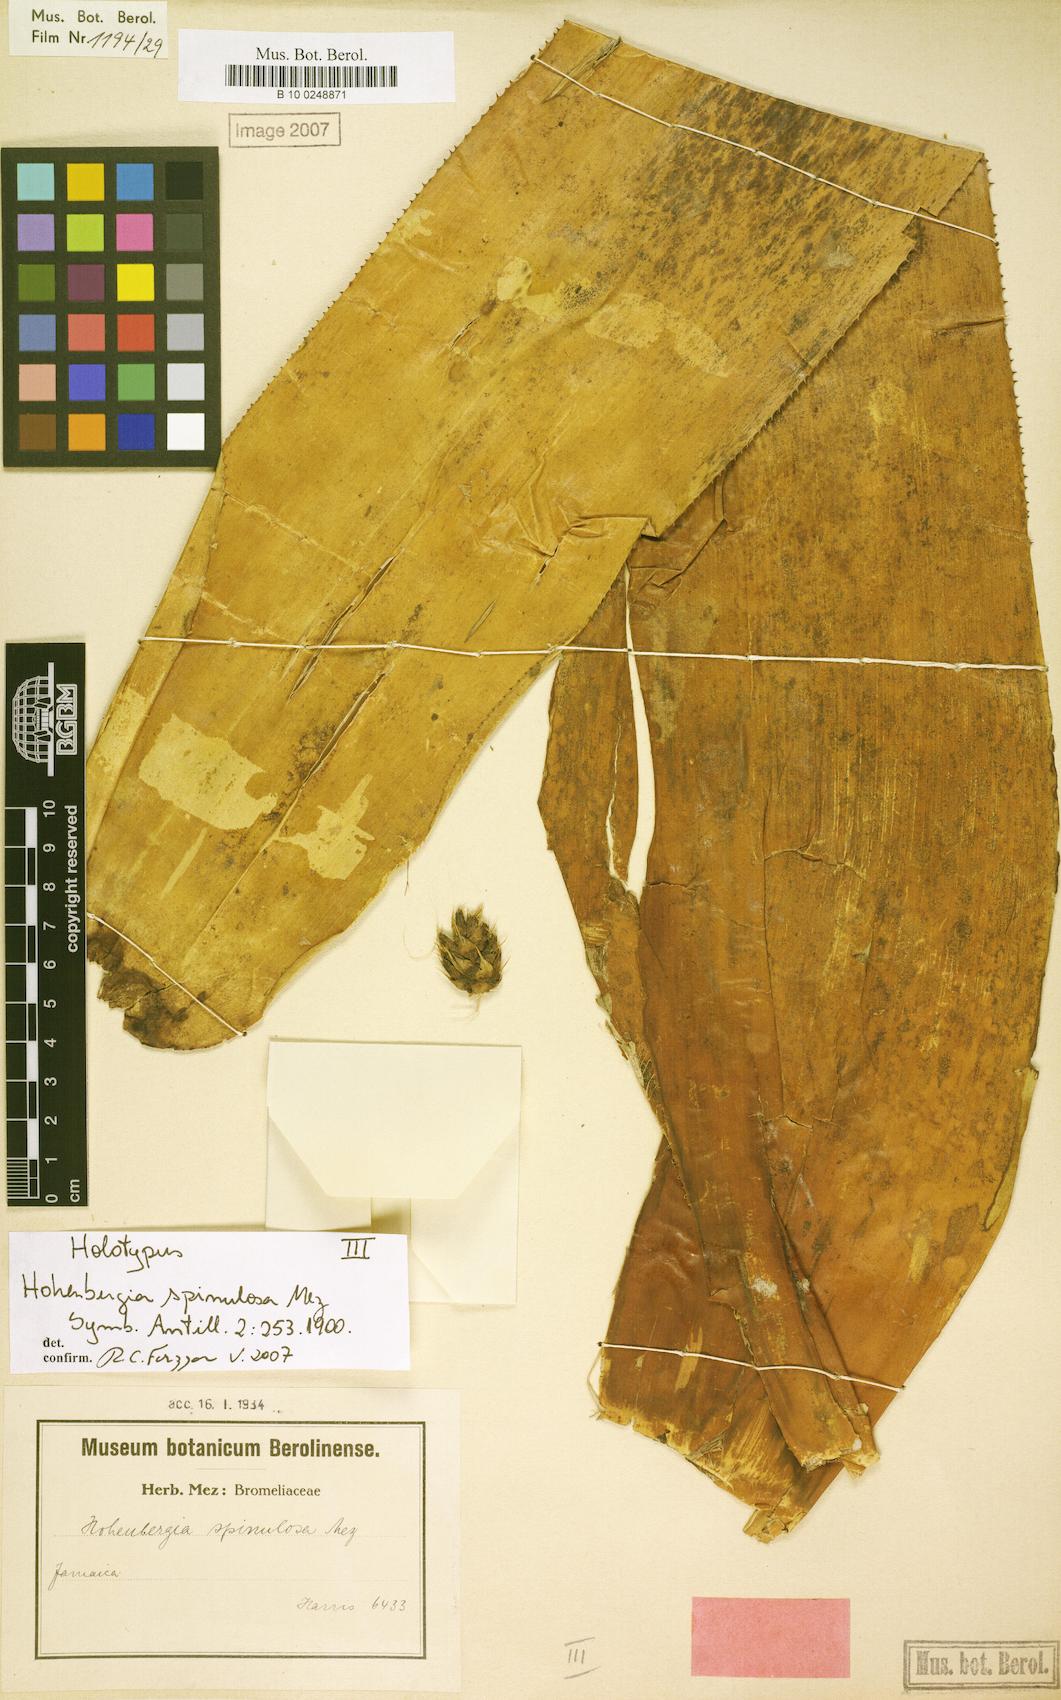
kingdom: Plantae
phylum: Tracheophyta
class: Liliopsida
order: Poales
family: Bromeliaceae
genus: Wittmackia
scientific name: Wittmackia spinulosa
